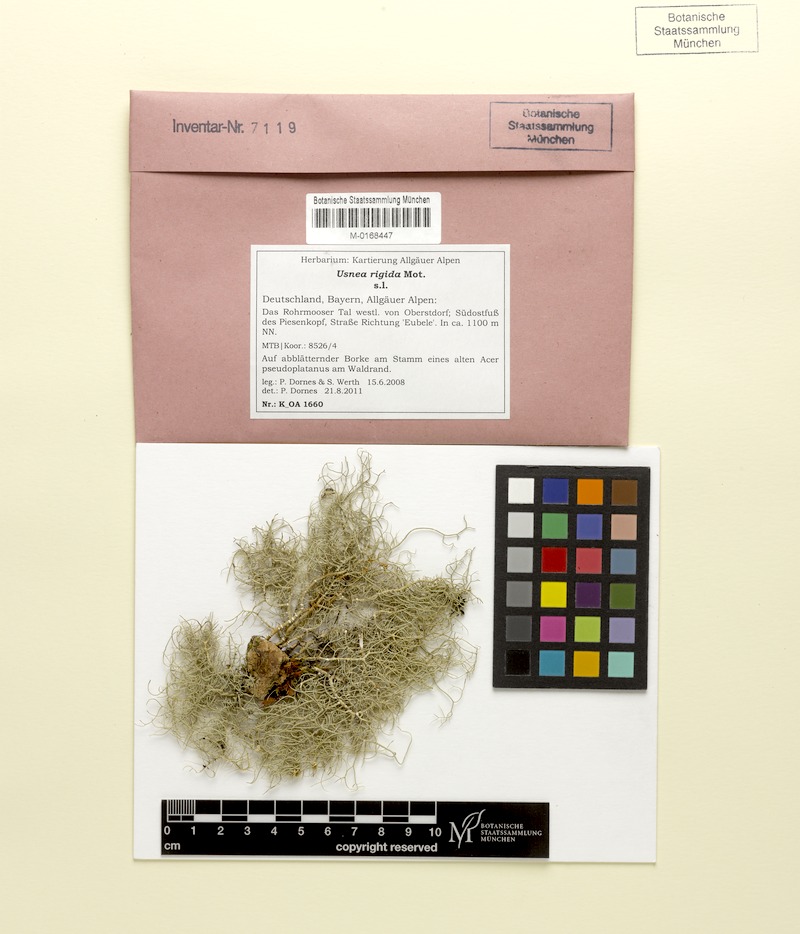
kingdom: Fungi
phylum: Ascomycota
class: Lecanoromycetes
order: Lecanorales
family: Parmeliaceae
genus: Usnea
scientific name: Usnea quasirigida
